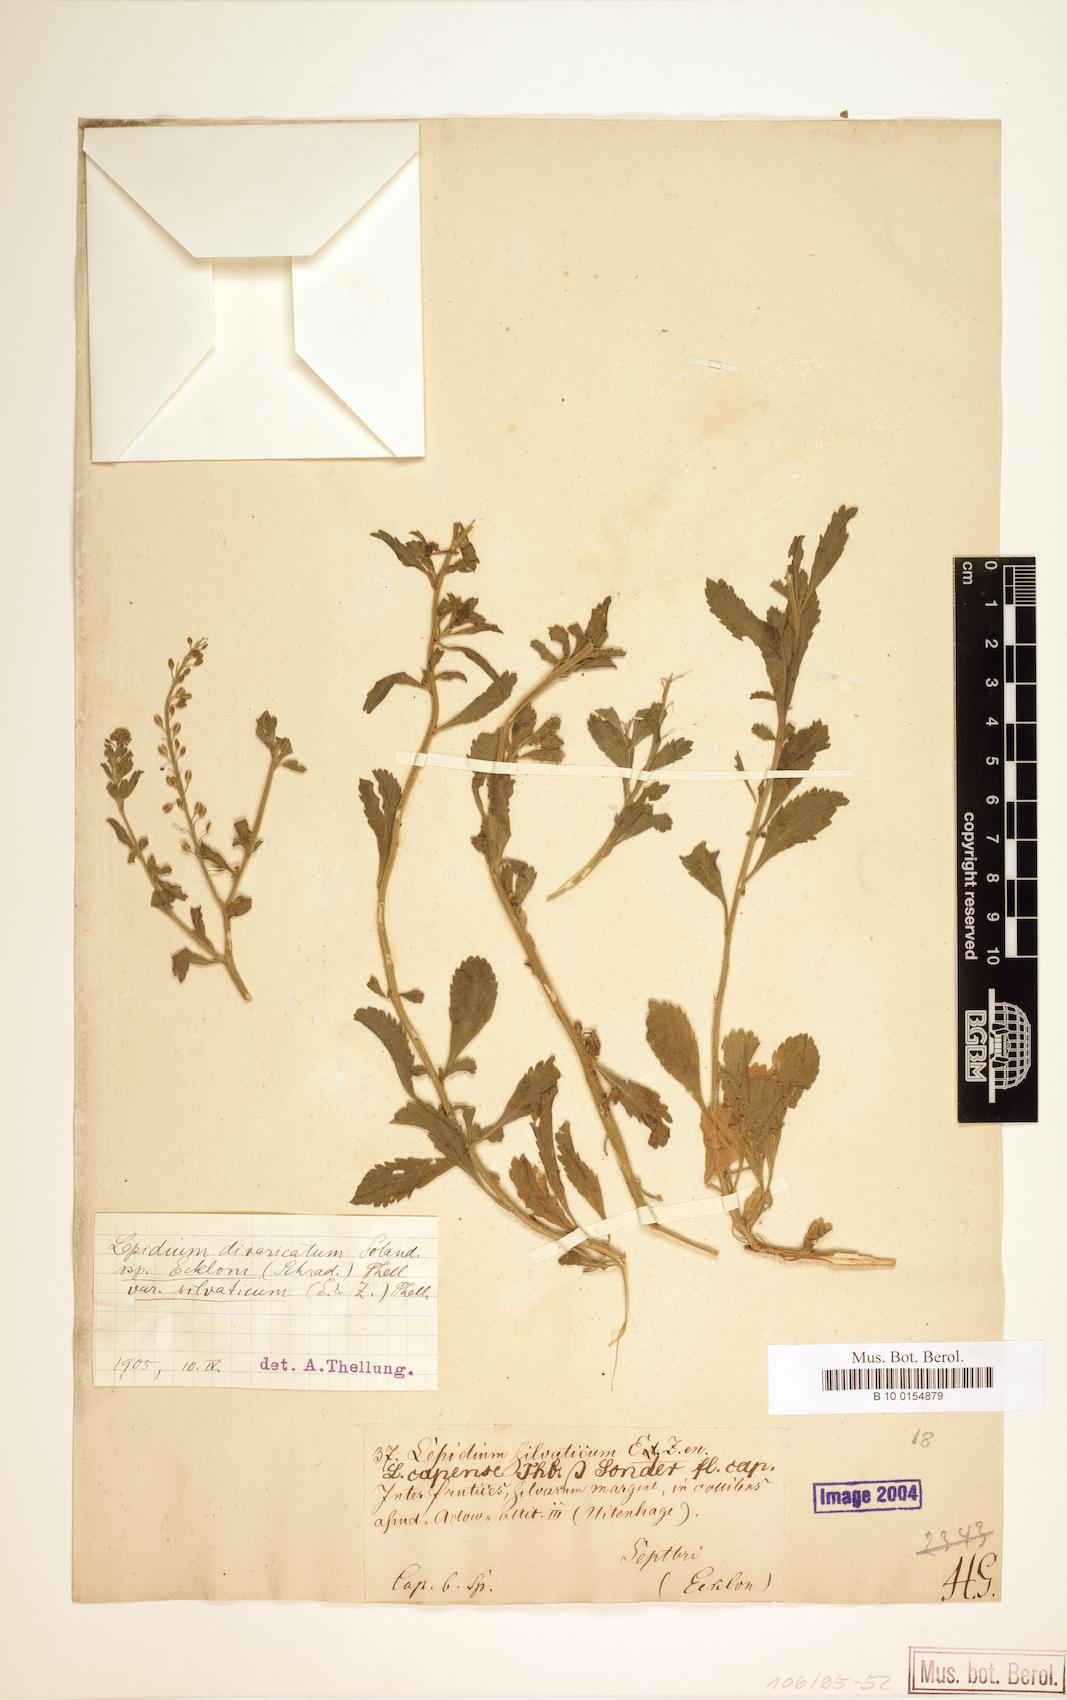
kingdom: Plantae
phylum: Tracheophyta
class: Magnoliopsida
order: Brassicales
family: Brassicaceae
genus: Lepidium
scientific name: Lepidium divaricatum
